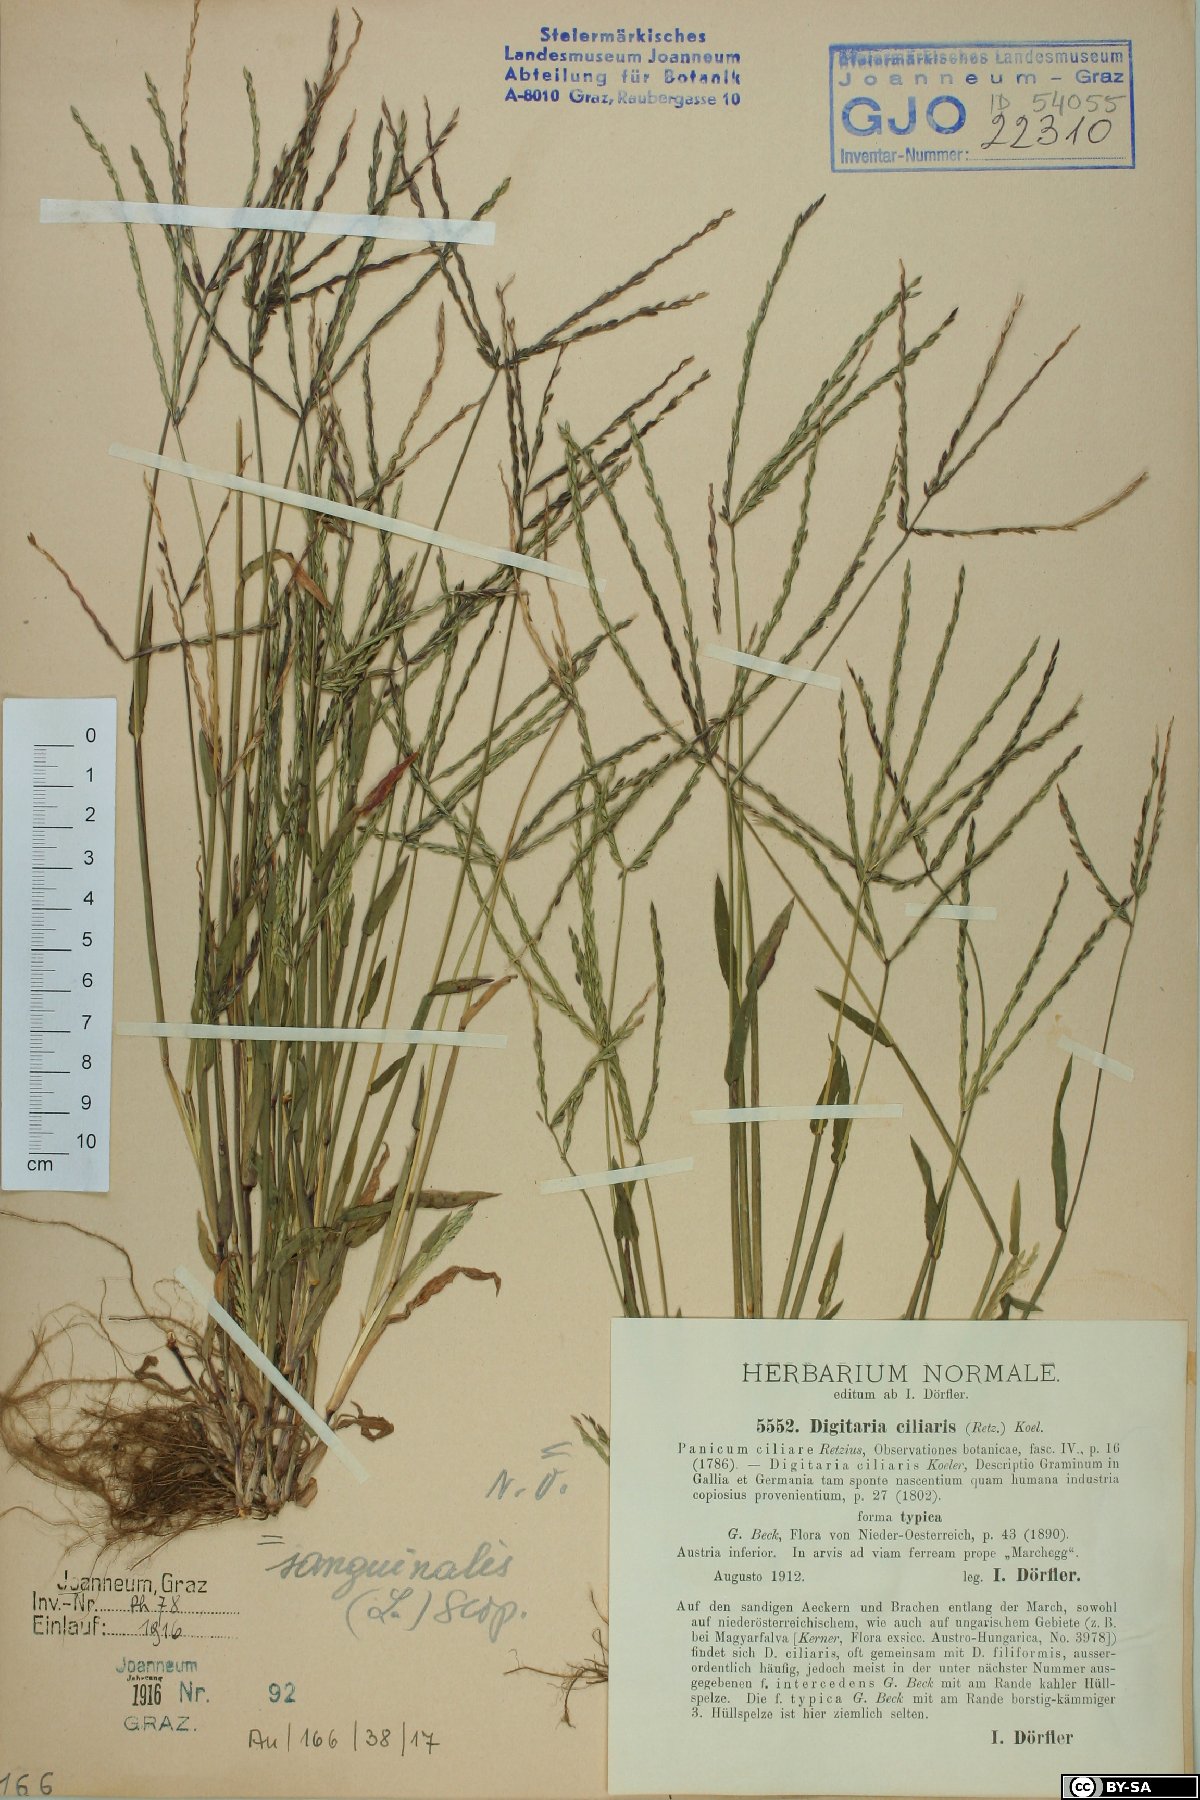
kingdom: Plantae
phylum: Tracheophyta
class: Liliopsida
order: Poales
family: Poaceae
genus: Digitaria
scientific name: Digitaria ciliaris
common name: Tropical finger-grass
